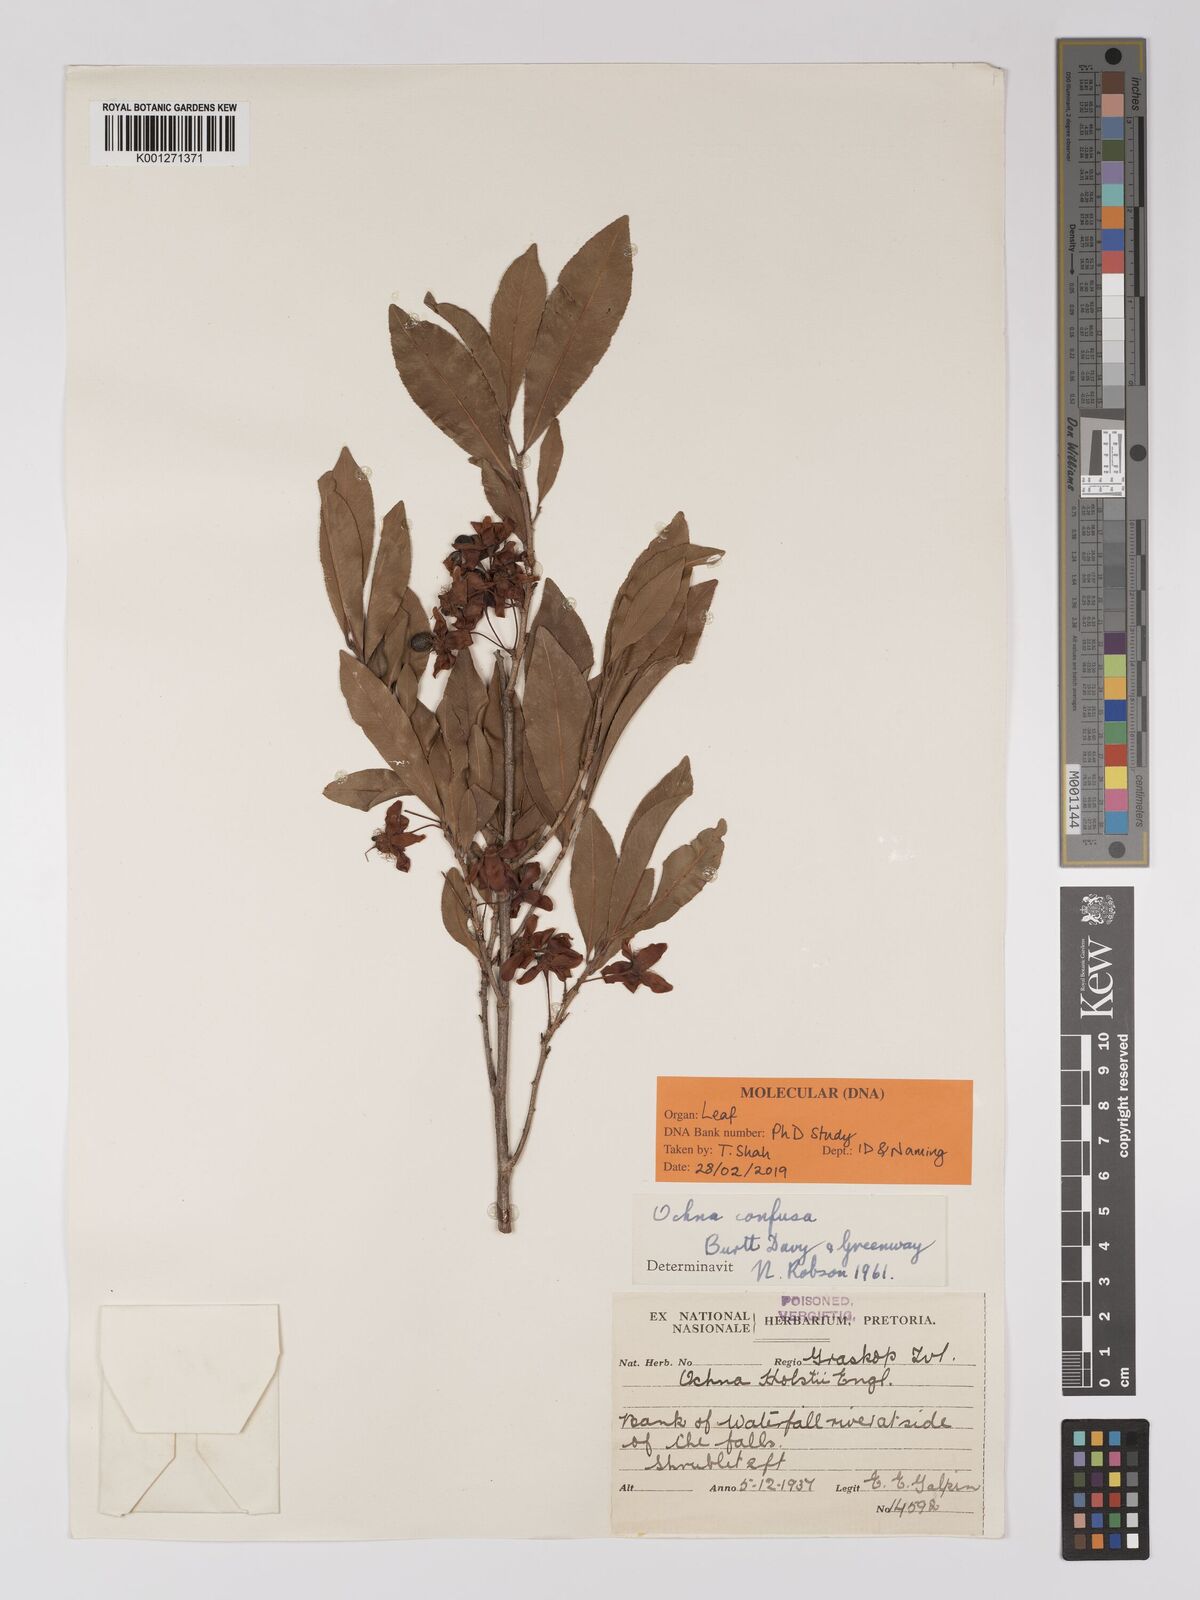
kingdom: Plantae
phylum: Tracheophyta
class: Magnoliopsida
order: Malpighiales
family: Ochnaceae
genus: Ochna
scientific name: Ochna confusa
